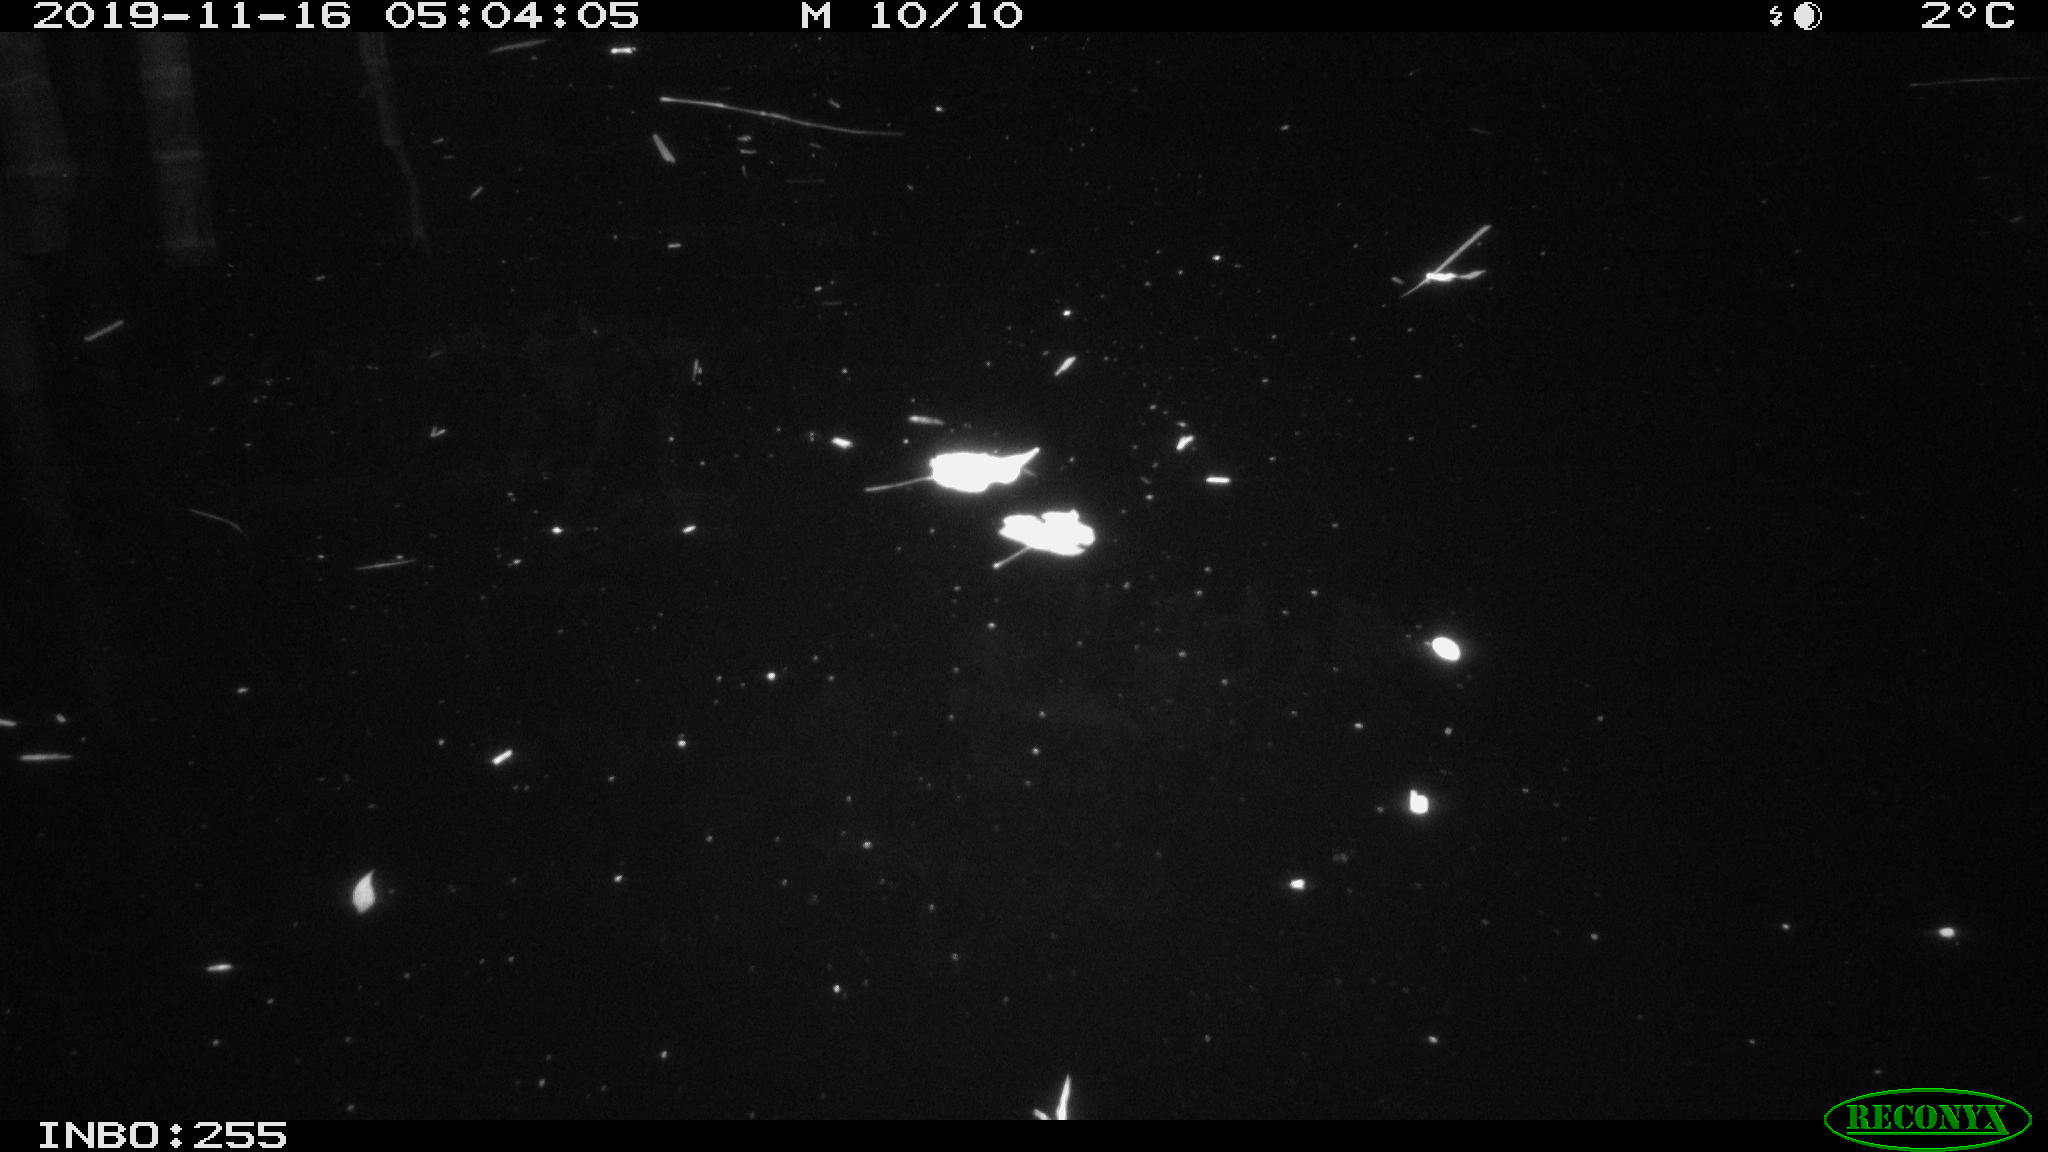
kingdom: Animalia
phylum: Chordata
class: Mammalia
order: Rodentia
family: Cricetidae
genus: Ondatra
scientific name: Ondatra zibethicus
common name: Muskrat
